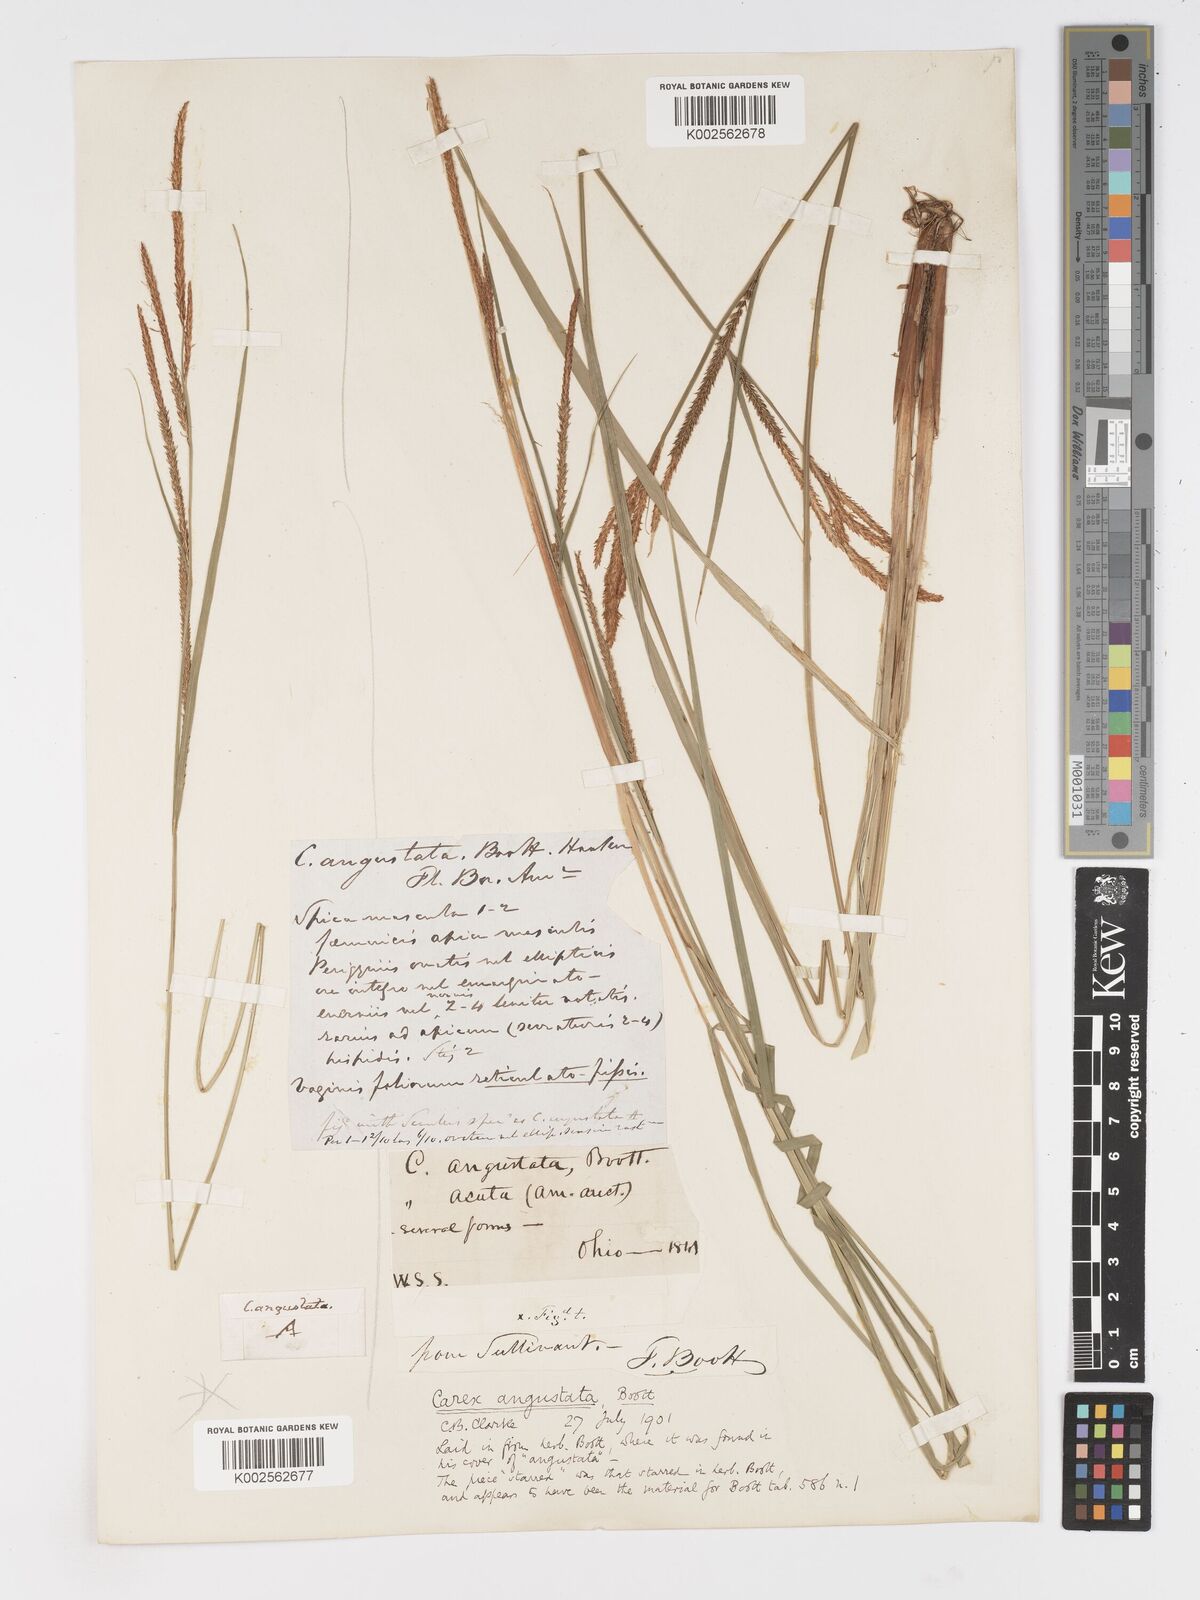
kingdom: Plantae
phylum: Tracheophyta
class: Liliopsida
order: Poales
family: Cyperaceae
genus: Carex
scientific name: Carex stricta
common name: Hummock sedge
